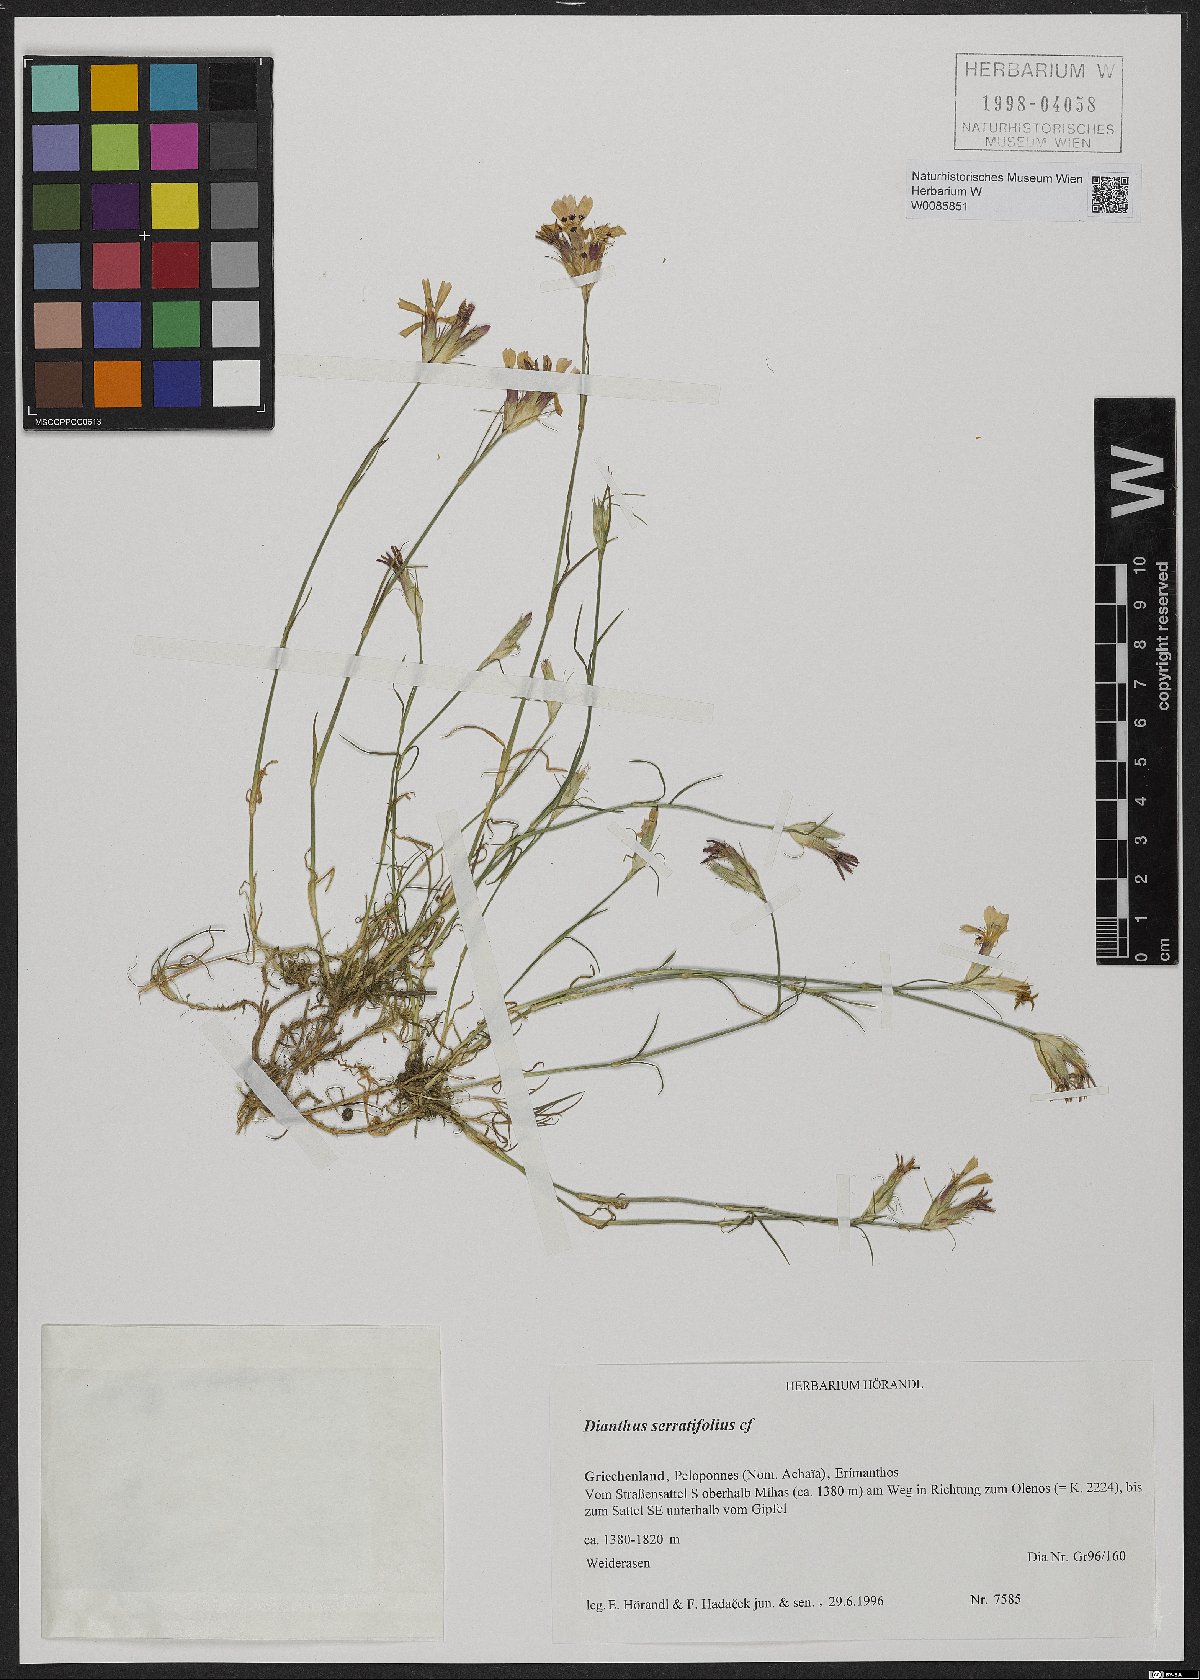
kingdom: Plantae
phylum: Tracheophyta
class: Magnoliopsida
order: Caryophyllales
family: Caryophyllaceae
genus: Dianthus
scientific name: Dianthus serratifolius
